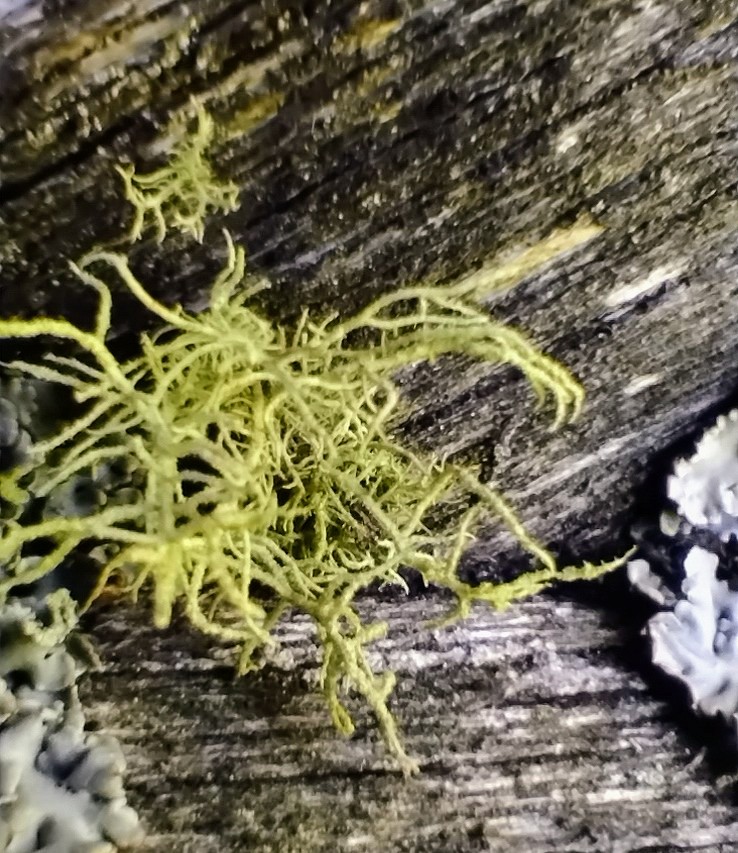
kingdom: Fungi
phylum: Ascomycota
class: Lecanoromycetes
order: Lecanorales
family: Parmeliaceae
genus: Usnea
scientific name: Usnea
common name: skæglav
